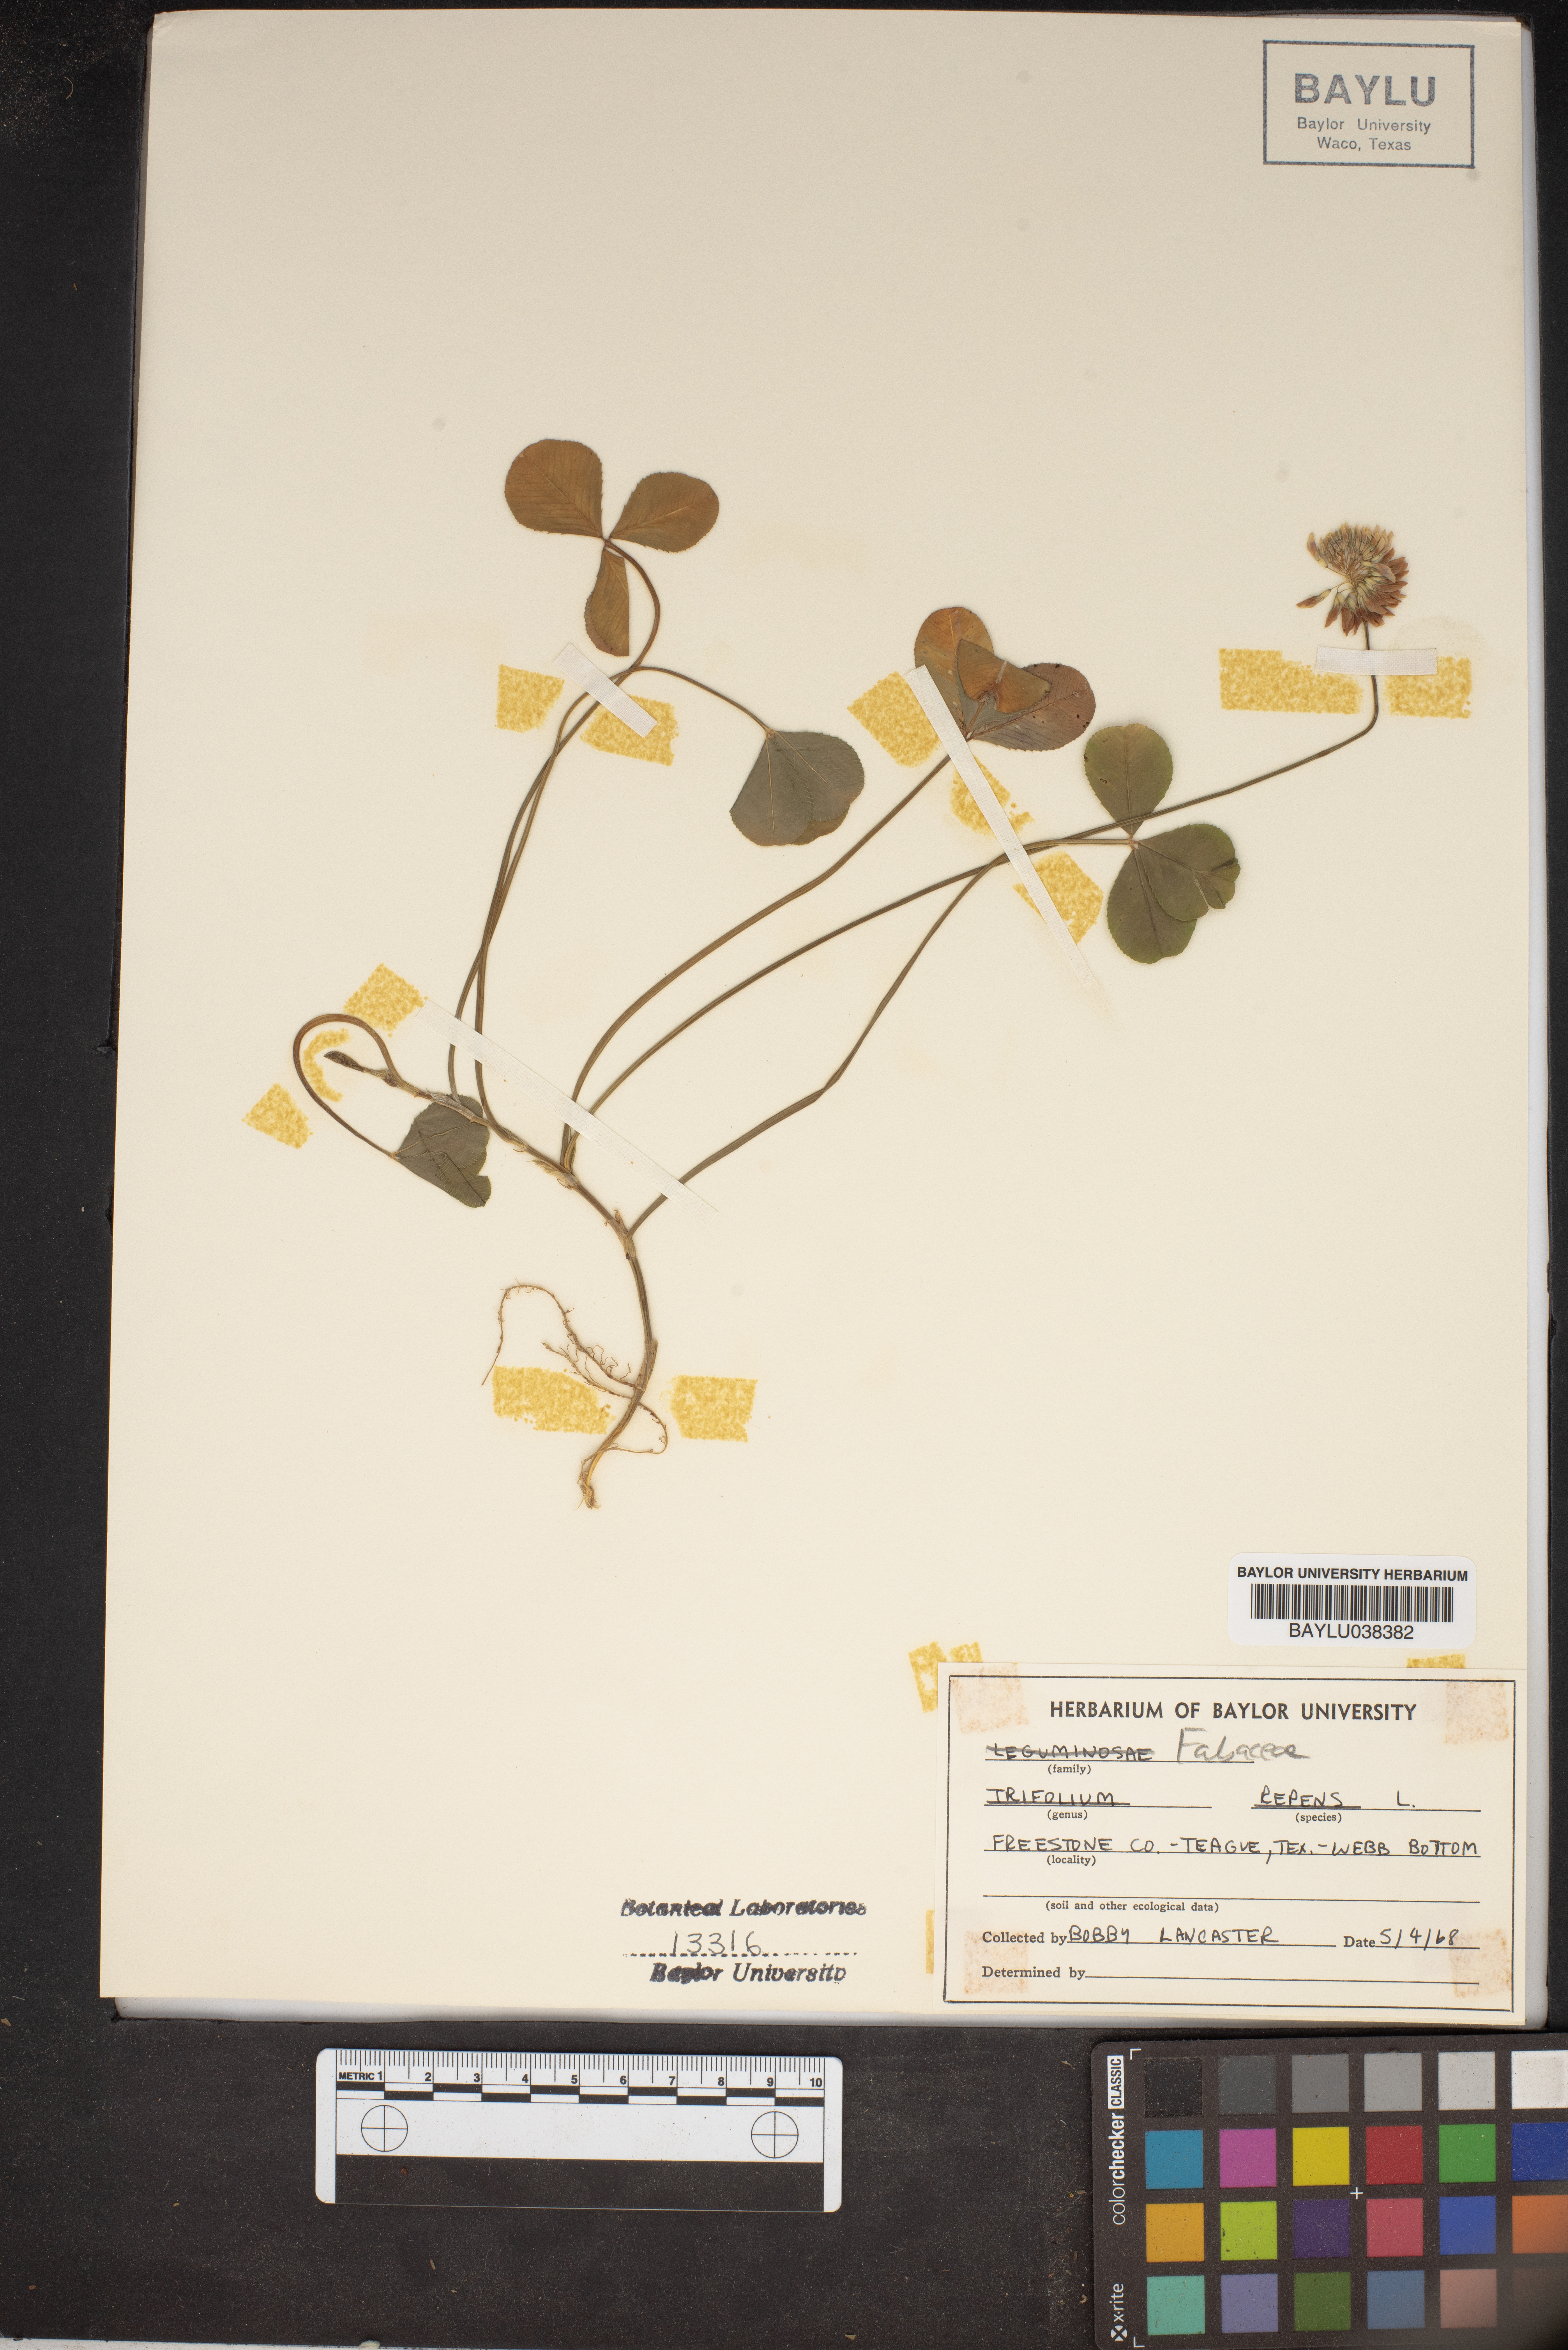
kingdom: Plantae
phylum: Tracheophyta
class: Magnoliopsida
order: Fabales
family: Fabaceae
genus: Trifolium
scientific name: Trifolium repens
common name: White clover
